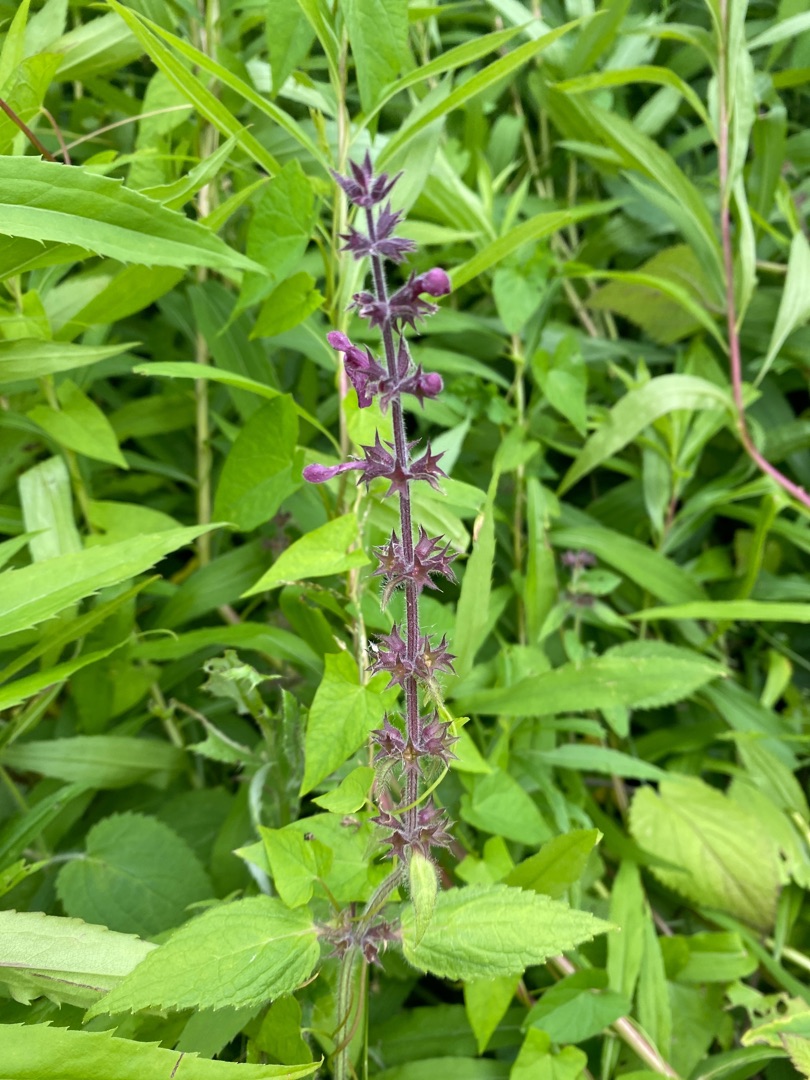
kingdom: Plantae
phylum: Tracheophyta
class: Magnoliopsida
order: Lamiales
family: Lamiaceae
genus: Stachys
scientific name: Stachys sylvatica
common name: Skov-galtetand
